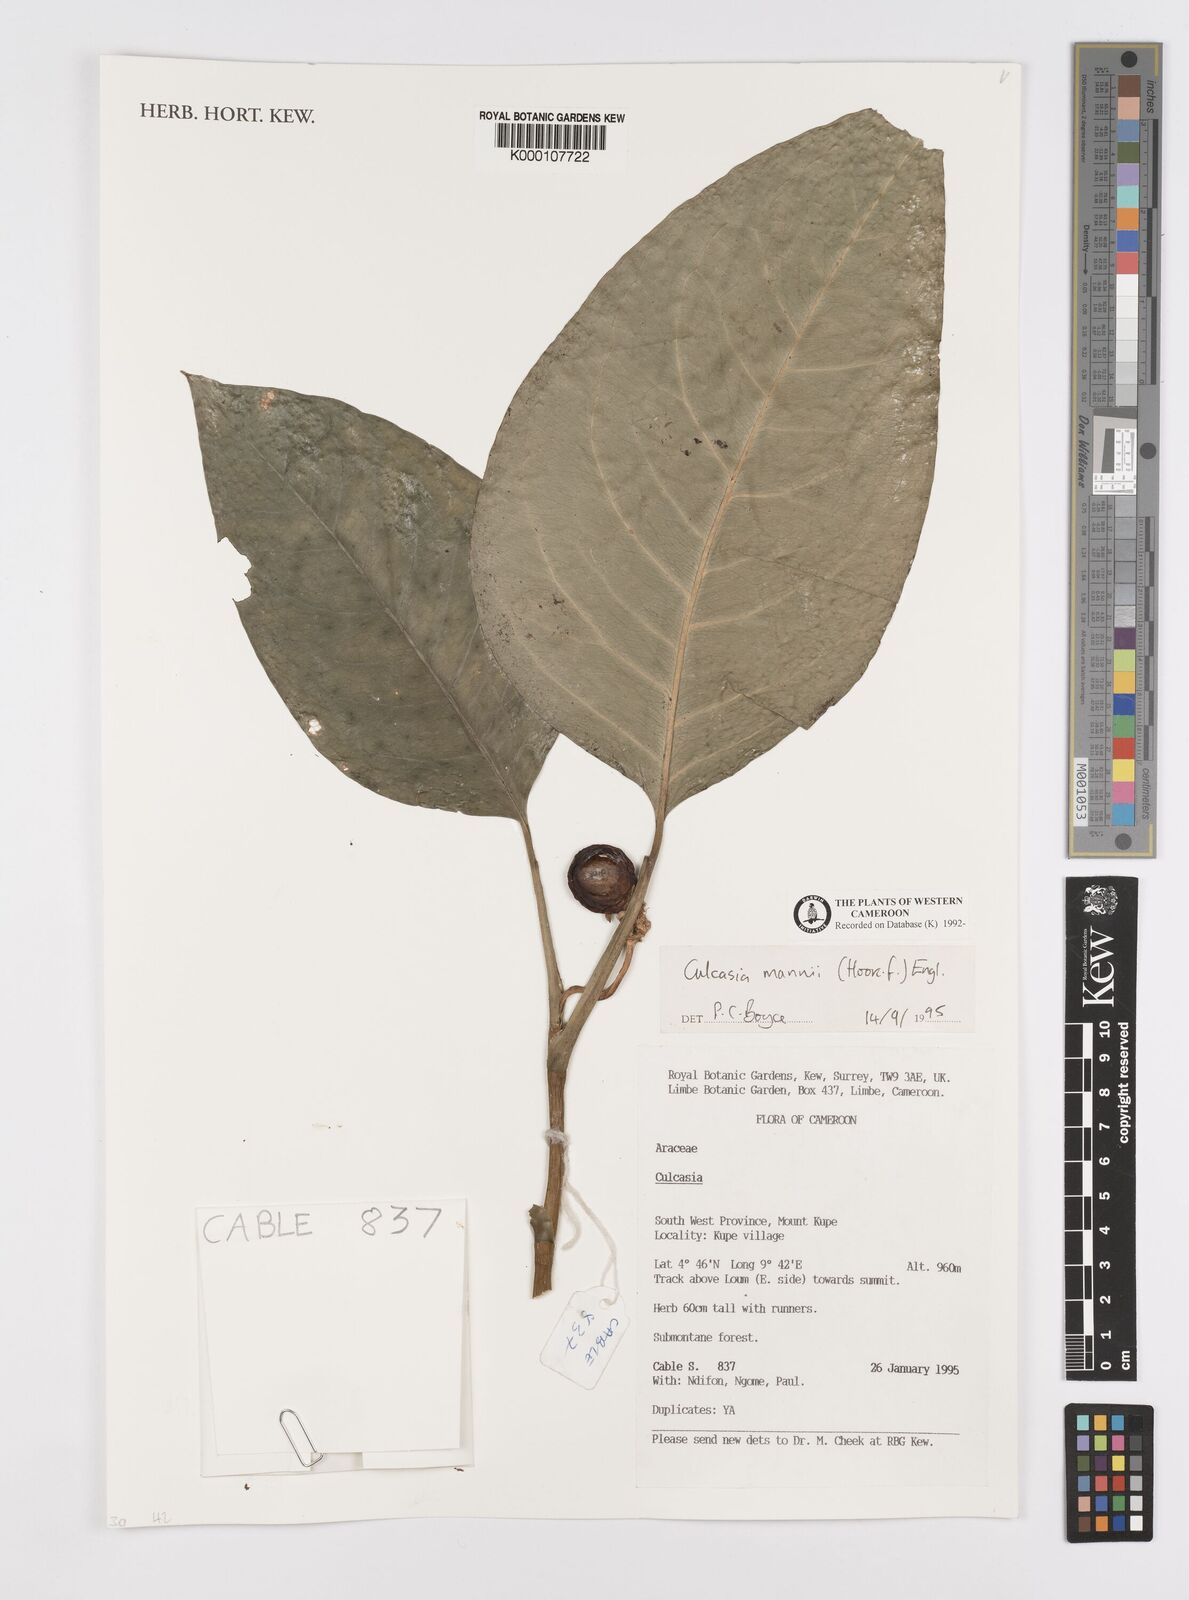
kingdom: Plantae
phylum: Tracheophyta
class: Liliopsida
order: Alismatales
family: Araceae
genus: Culcasia
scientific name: Culcasia mannii
